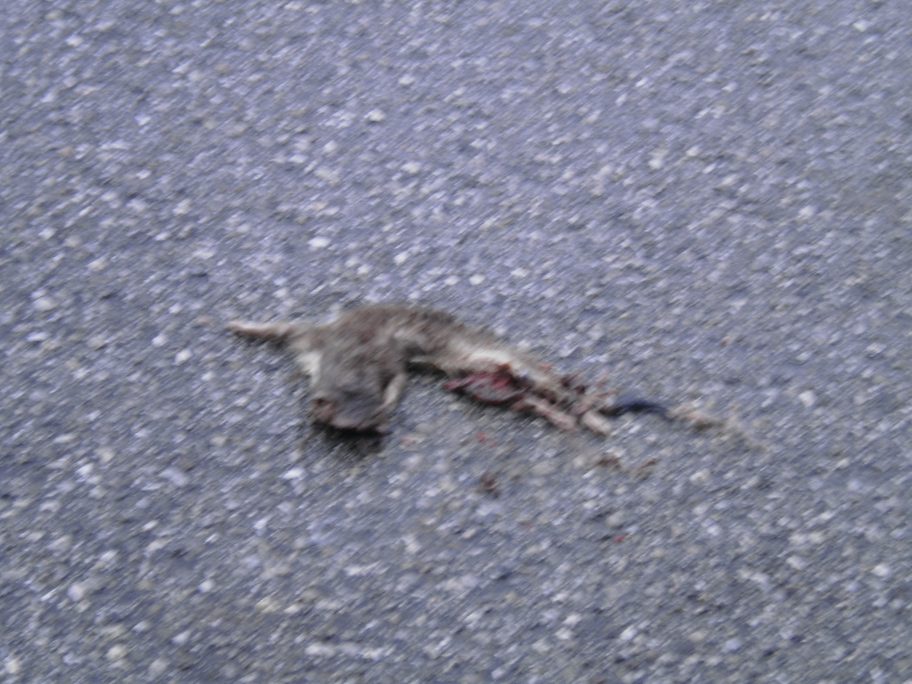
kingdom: Animalia
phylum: Chordata
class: Mammalia
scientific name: Mammalia
